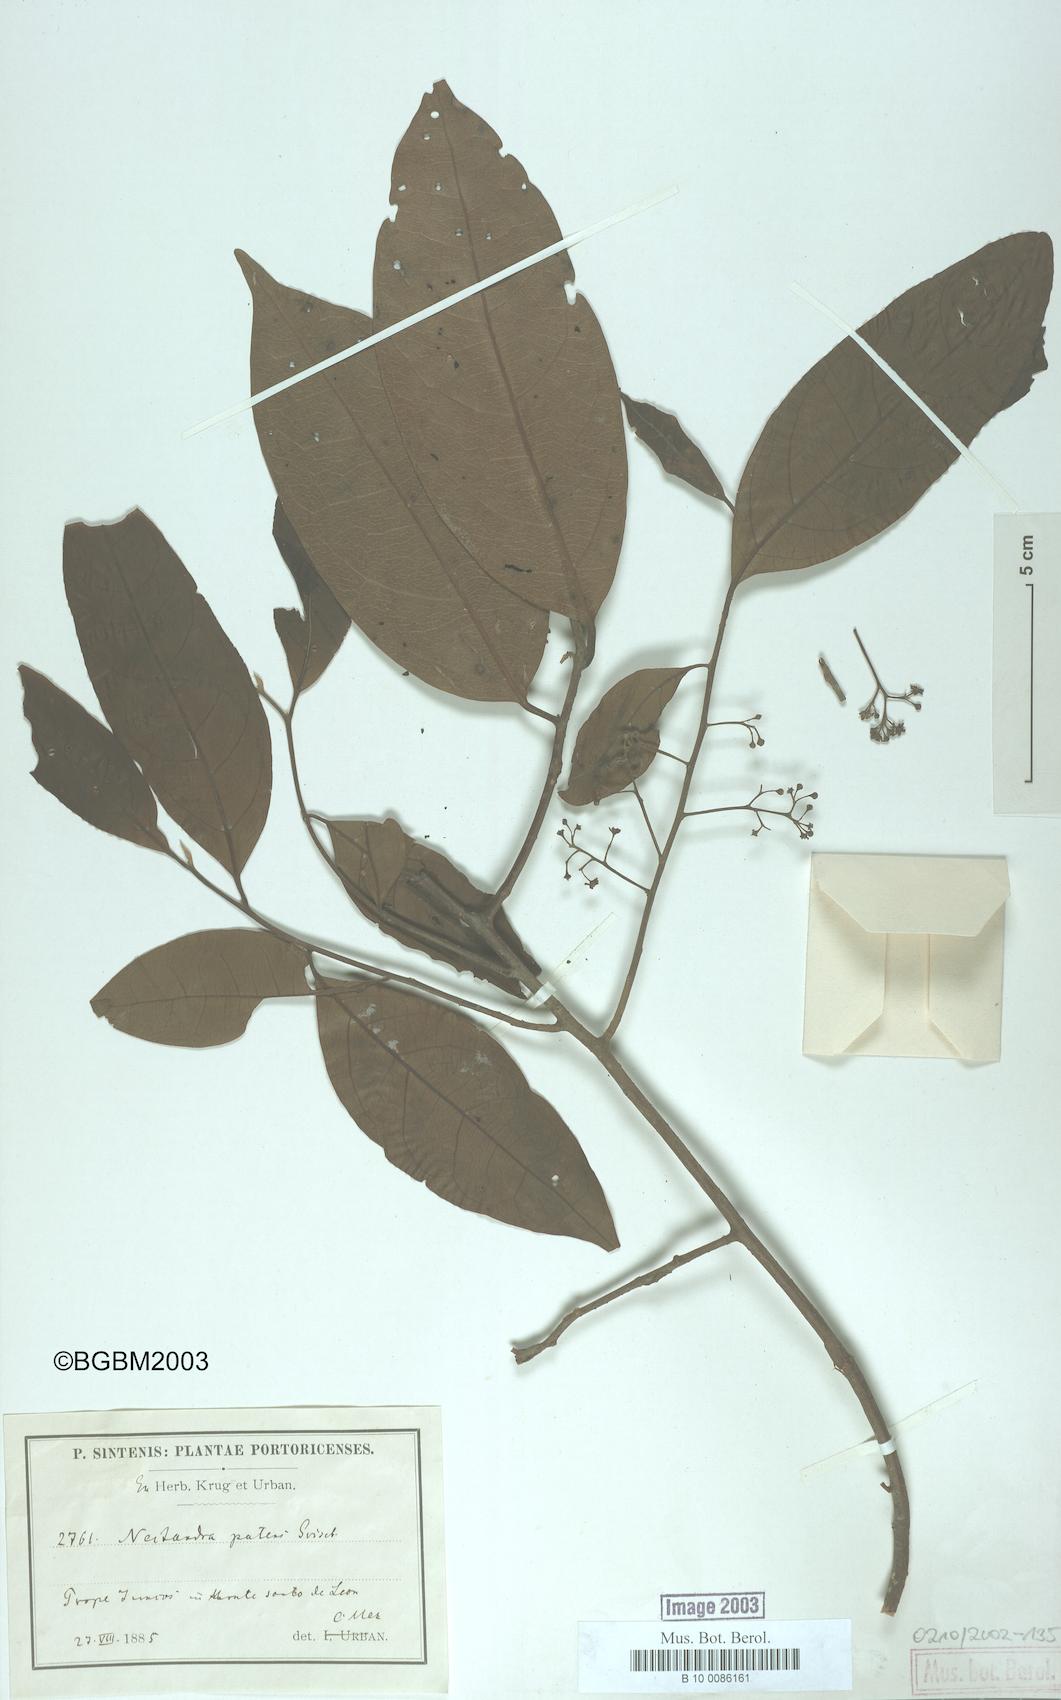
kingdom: Plantae
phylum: Tracheophyta
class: Magnoliopsida
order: Laurales
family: Lauraceae
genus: Damburneya
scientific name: Damburneya patens
